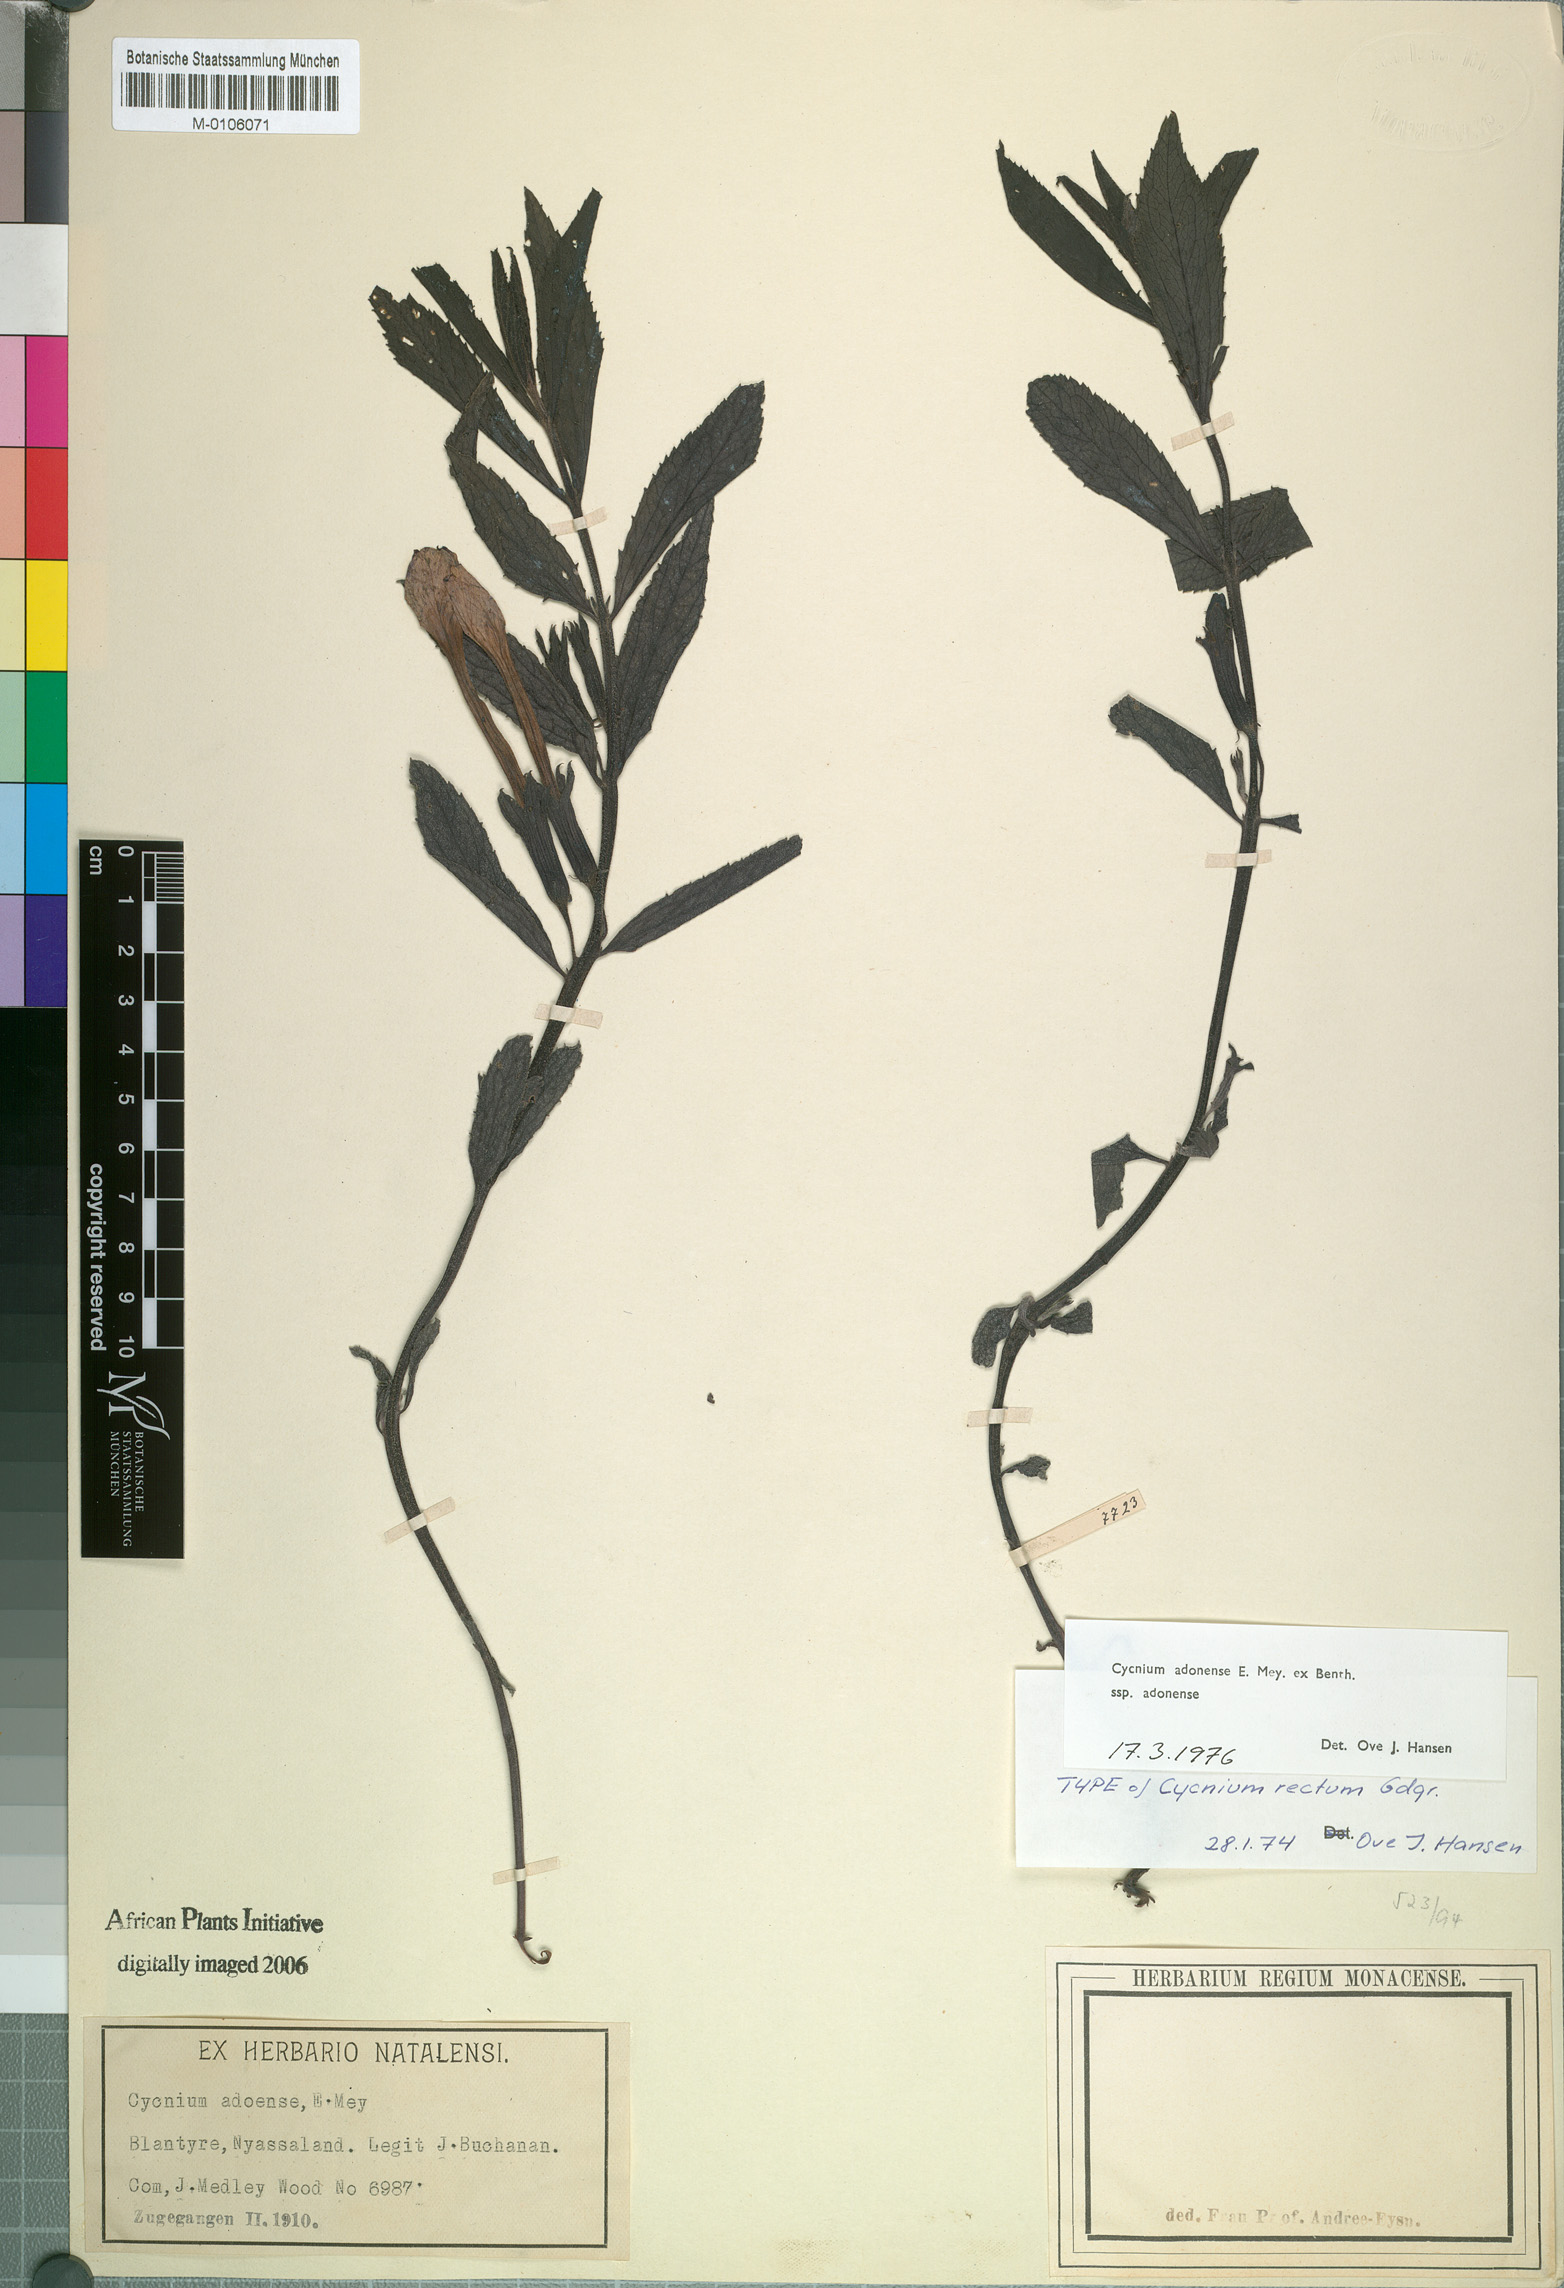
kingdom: Plantae
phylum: Tracheophyta
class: Magnoliopsida
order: Lamiales
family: Orobanchaceae
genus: Cycnium
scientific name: Cycnium adonense
